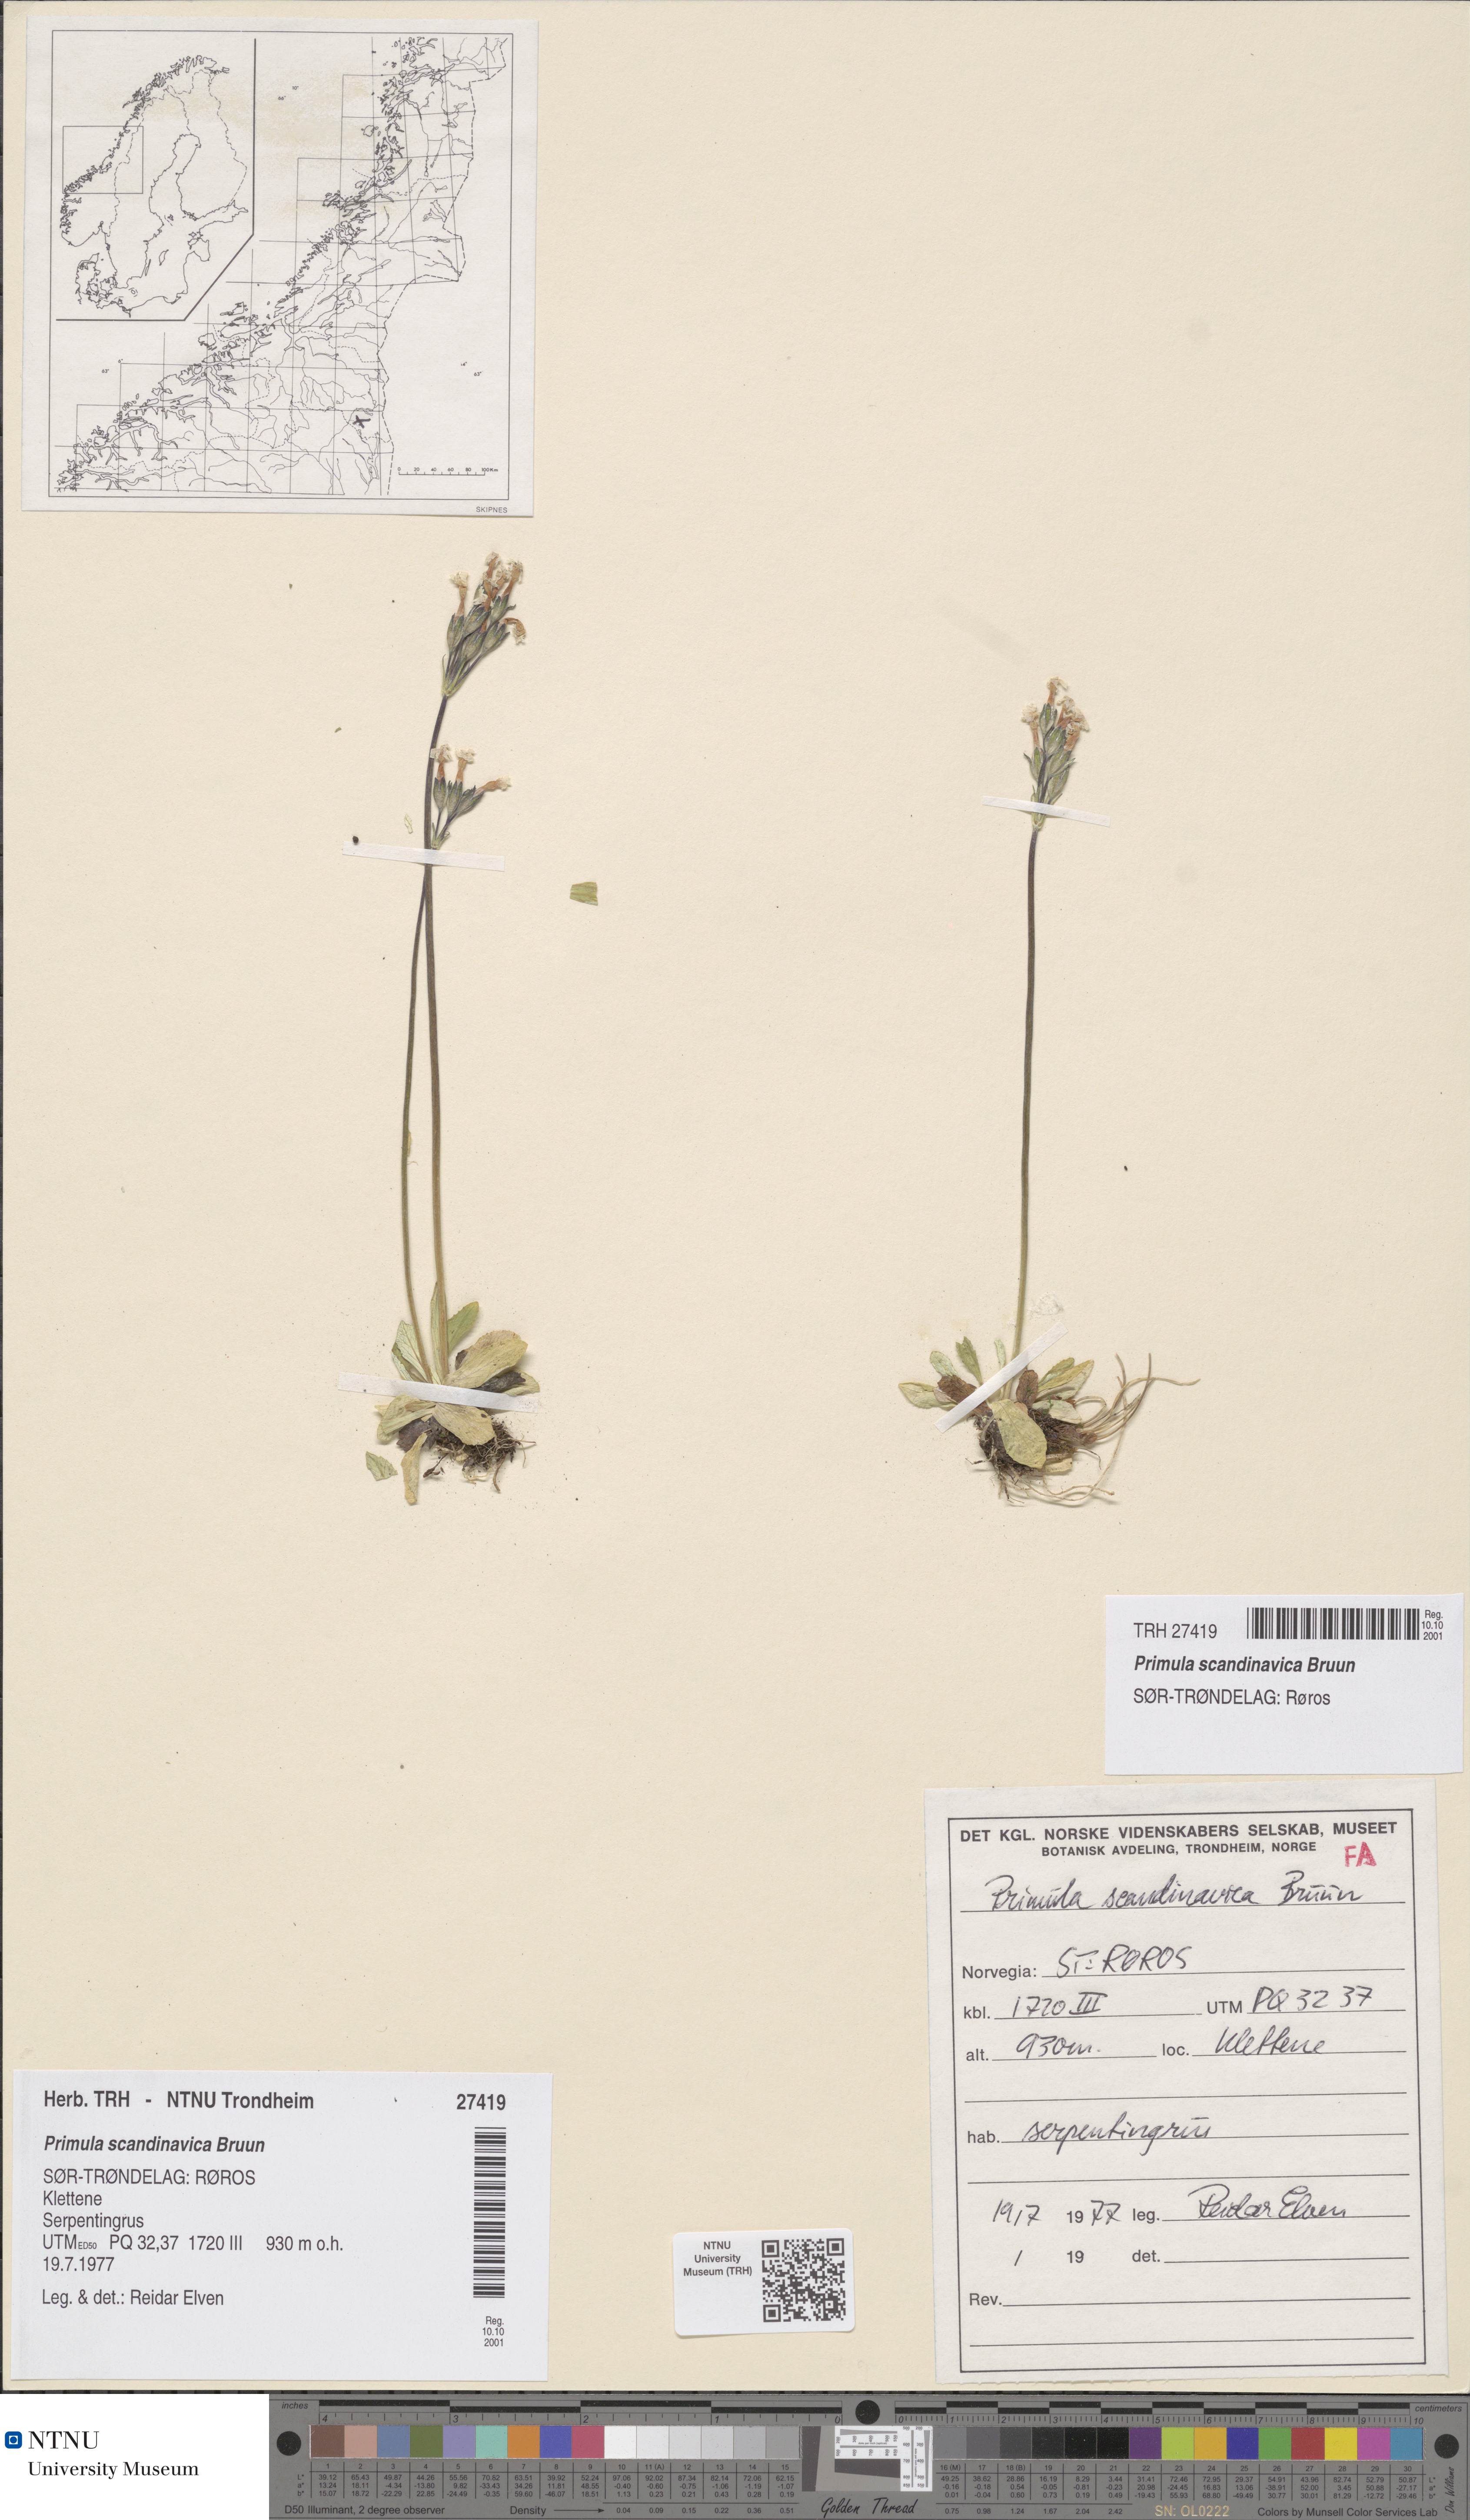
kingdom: Plantae
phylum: Tracheophyta
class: Magnoliopsida
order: Ericales
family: Primulaceae
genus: Primula
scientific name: Primula scandinavica
